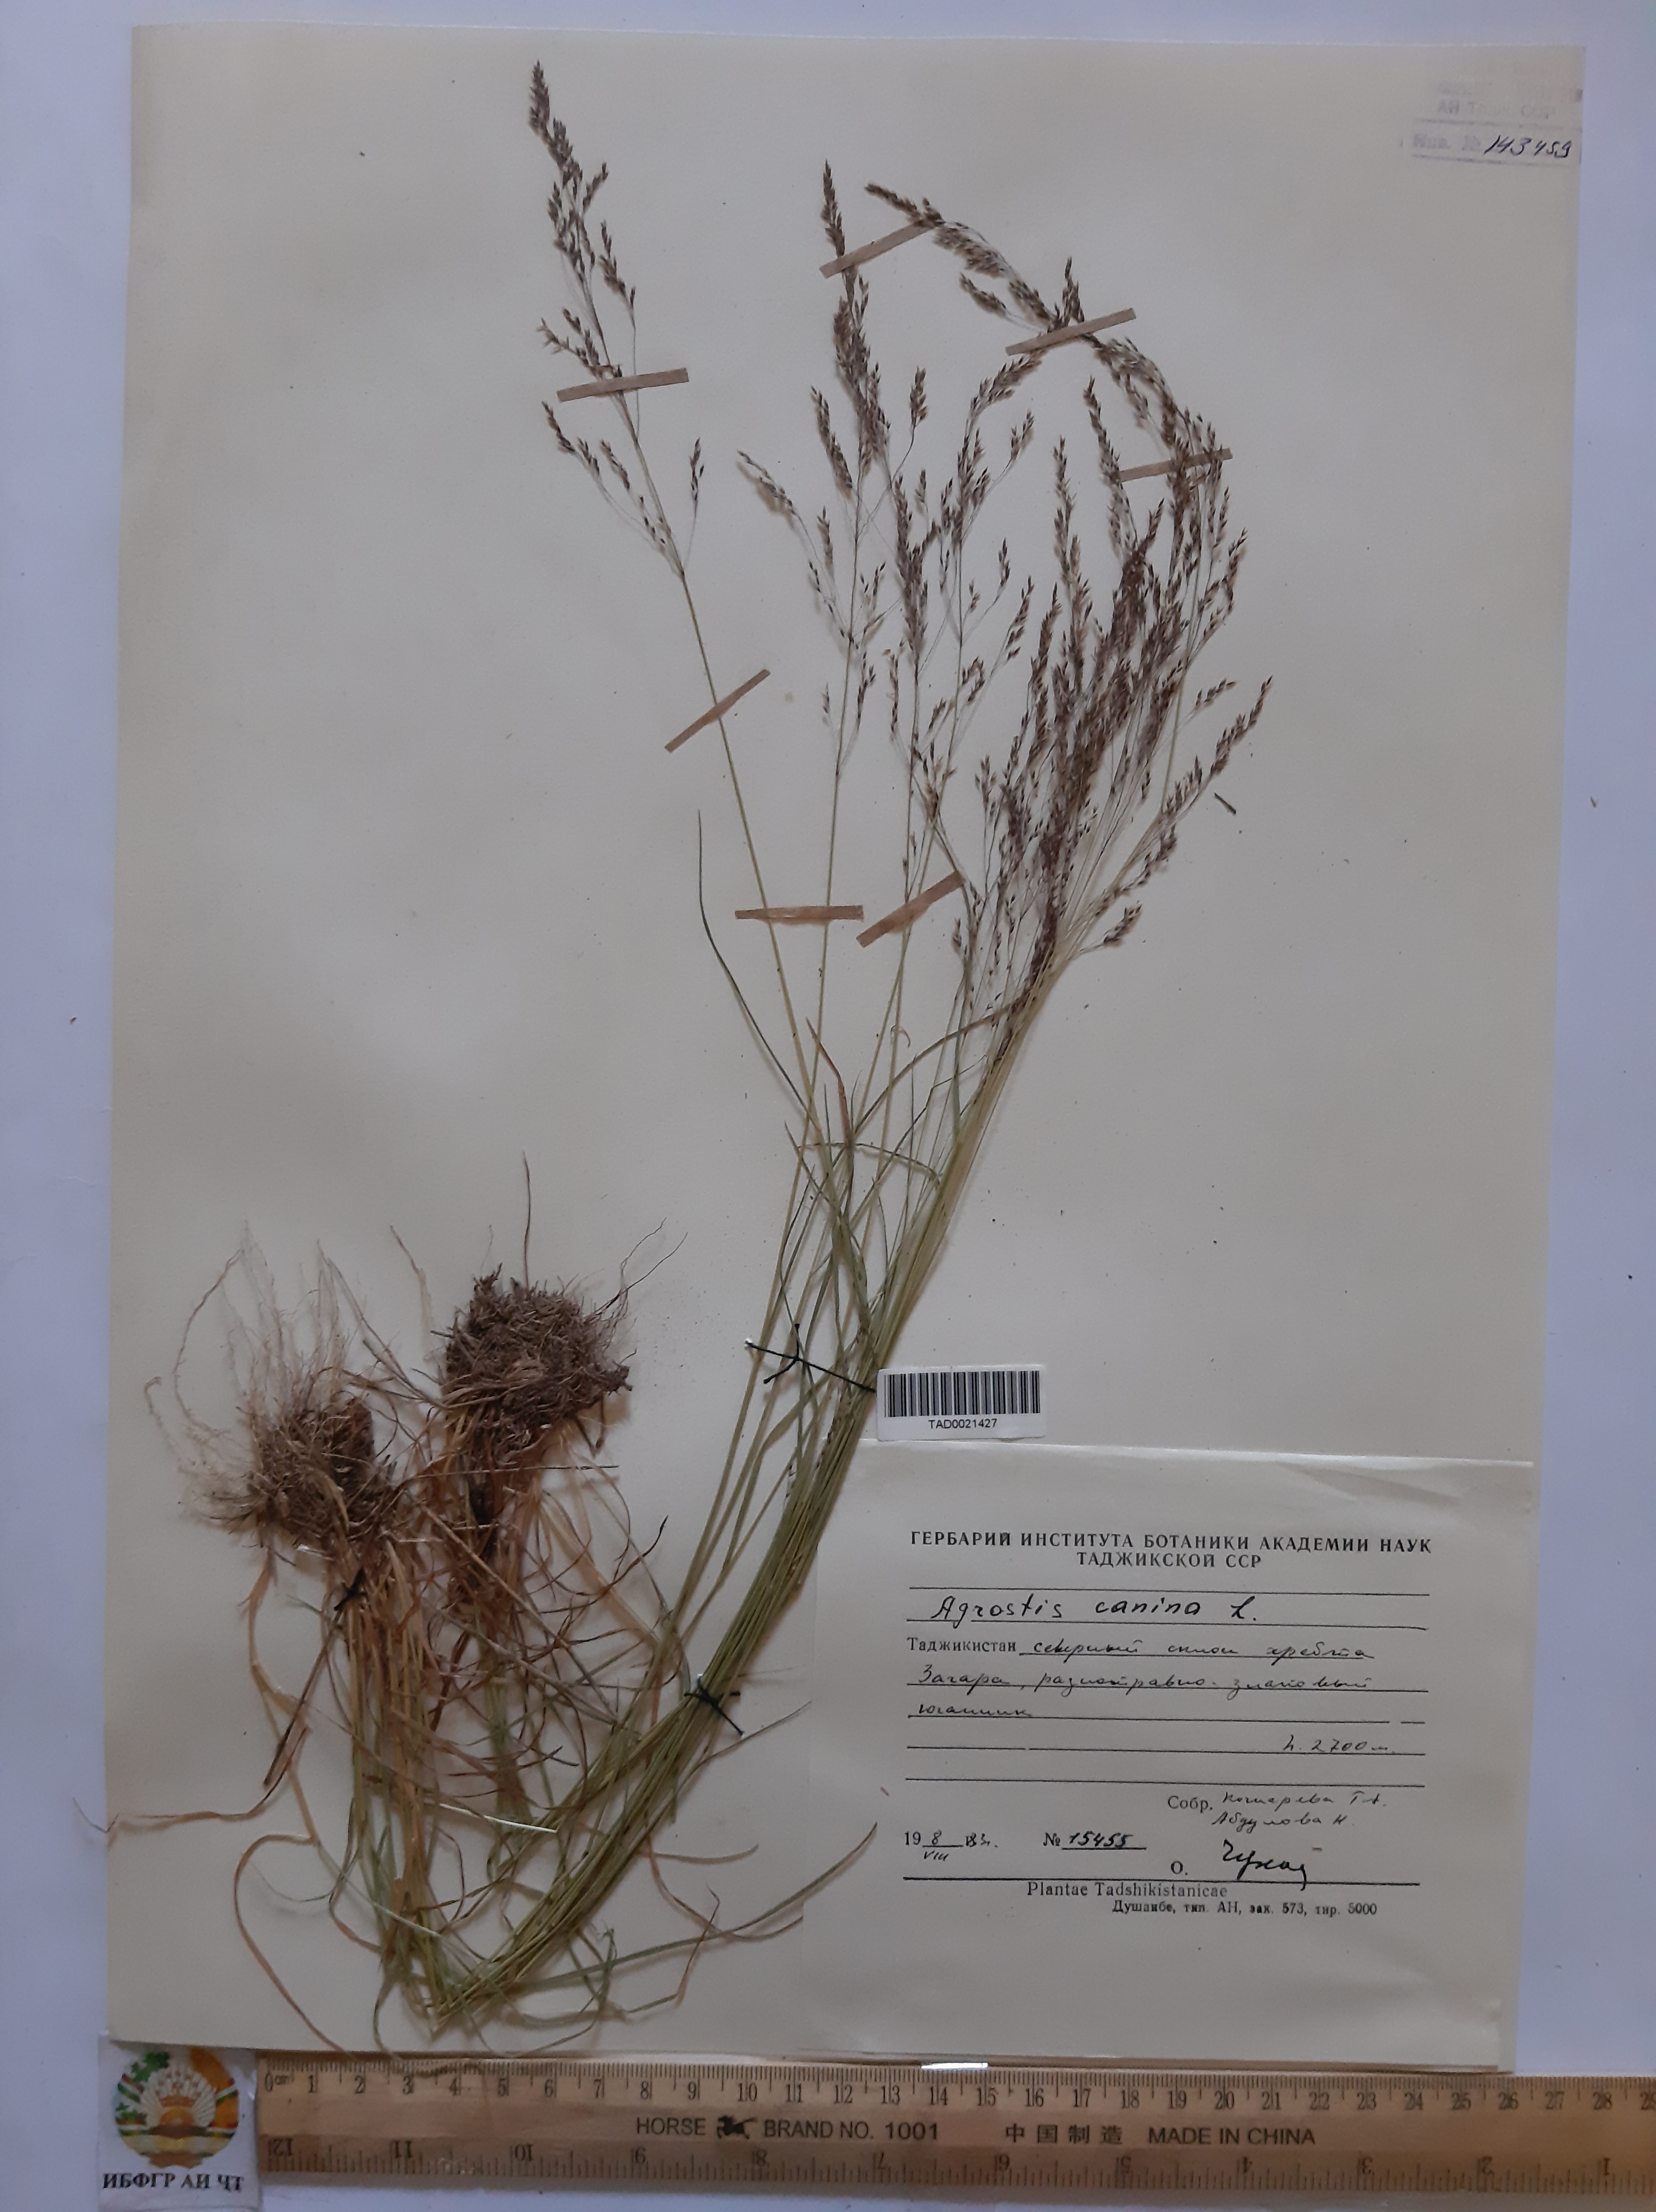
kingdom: Plantae
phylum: Tracheophyta
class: Liliopsida
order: Poales
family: Poaceae
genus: Agrostis
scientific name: Agrostis canina
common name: Velvet bent
